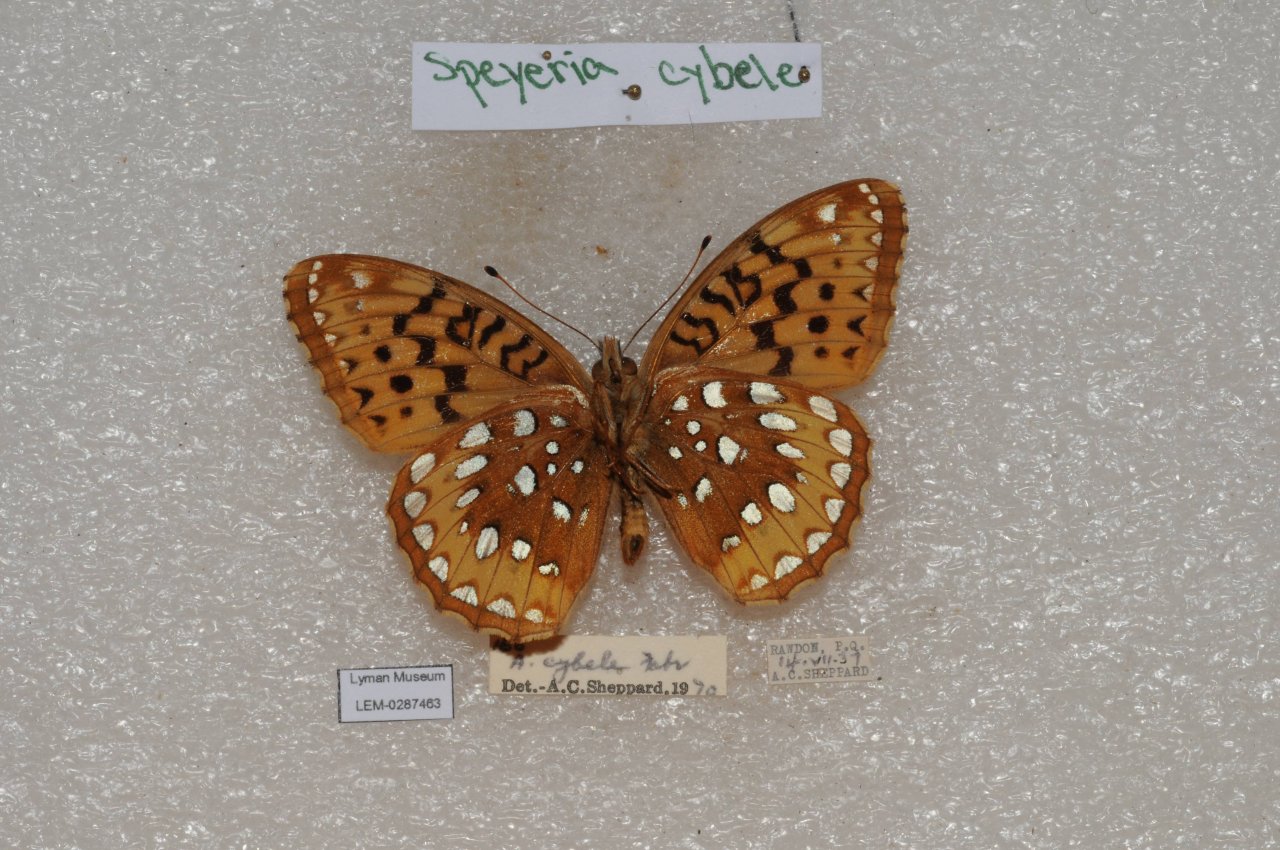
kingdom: Animalia
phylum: Arthropoda
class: Insecta
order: Lepidoptera
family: Nymphalidae
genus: Speyeria
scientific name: Speyeria cybele
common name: Great Spangled Fritillary
